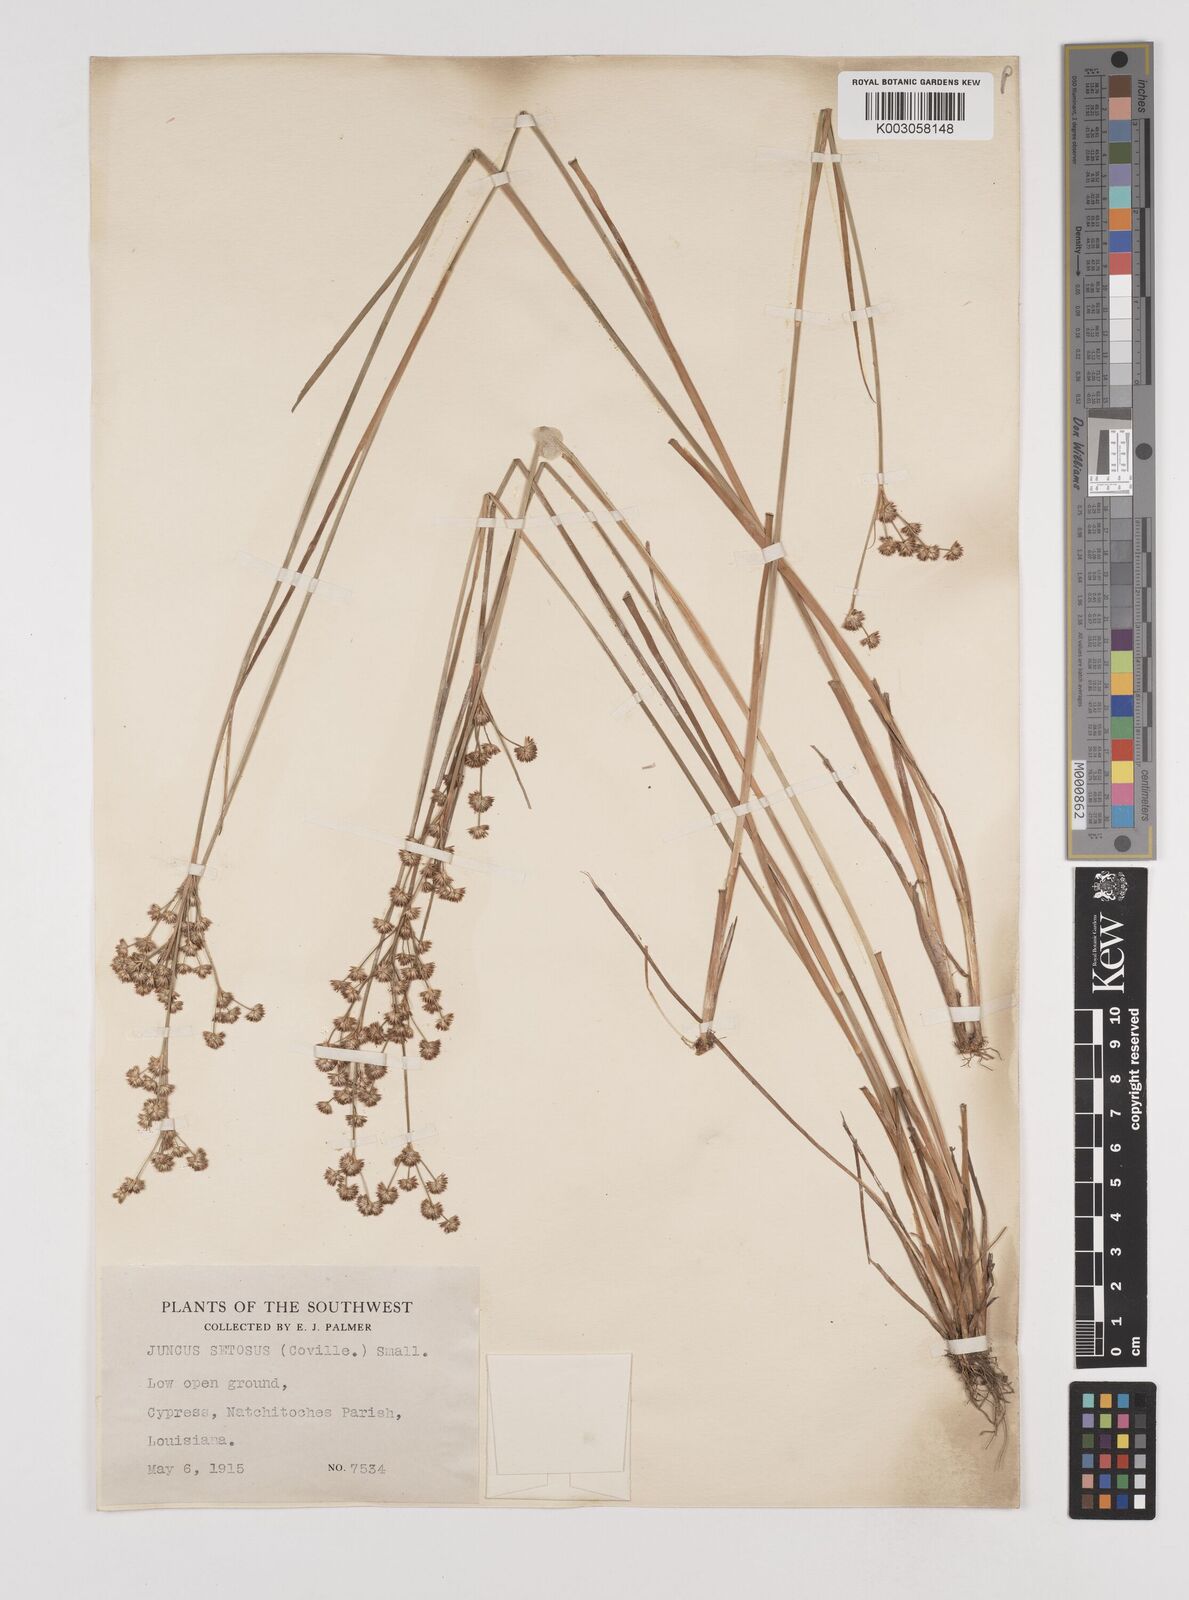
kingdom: Plantae
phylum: Tracheophyta
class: Liliopsida
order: Poales
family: Juncaceae
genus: Juncus
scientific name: Juncus marginatus
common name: Grass-leaf rush
